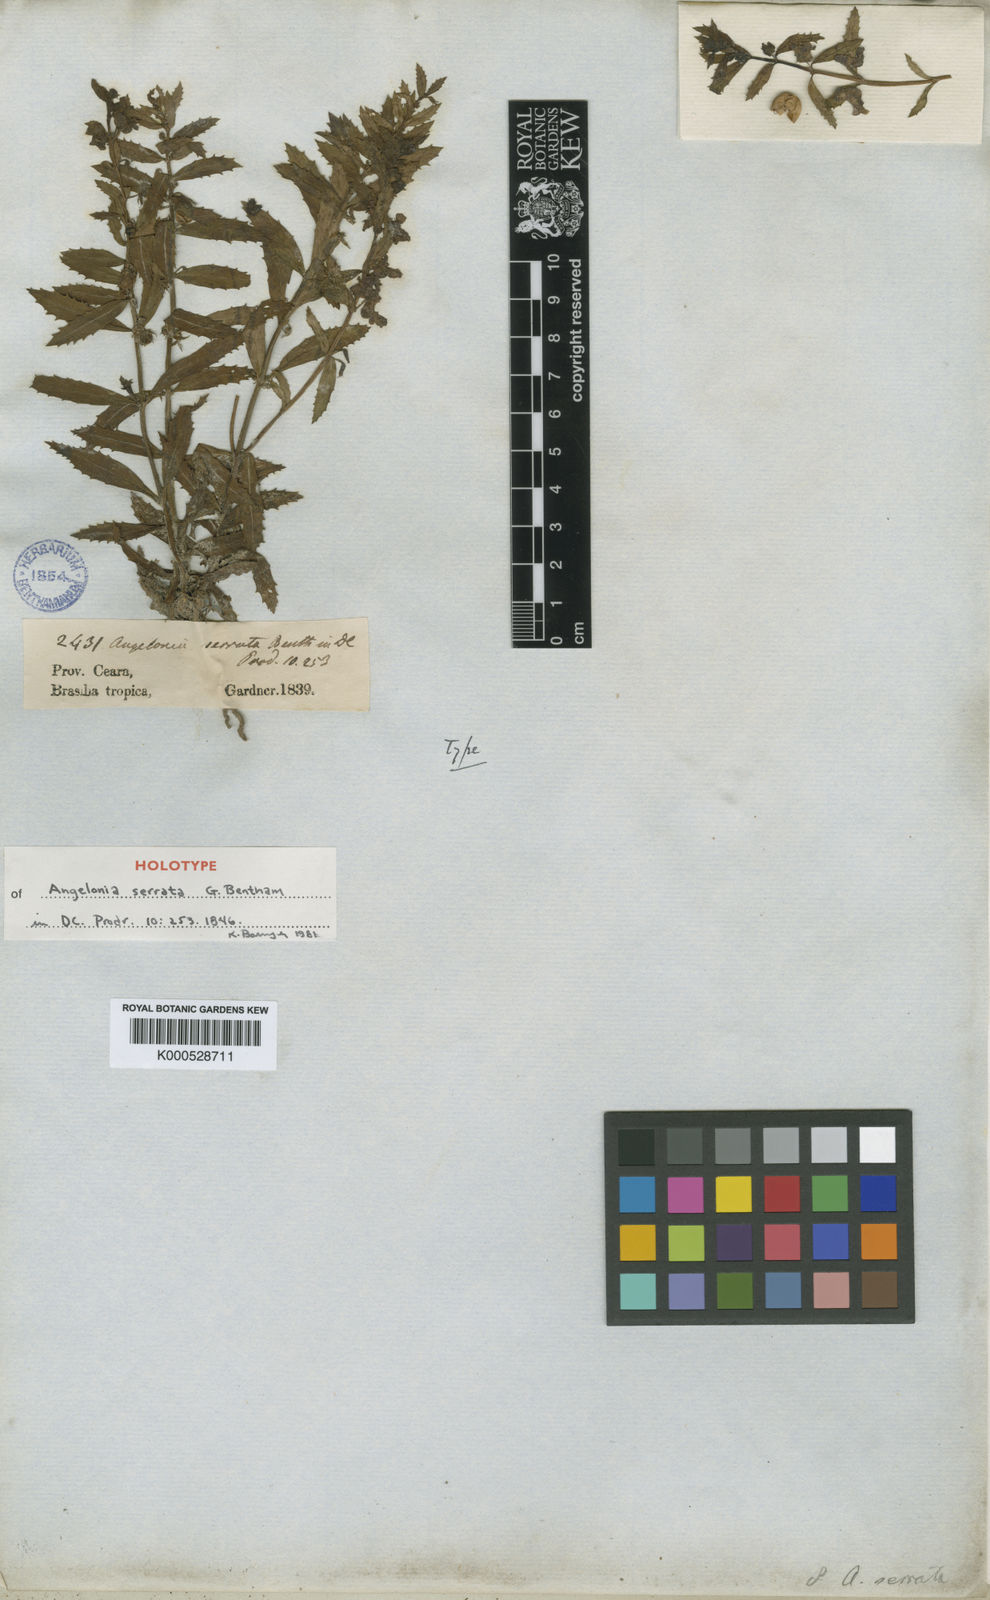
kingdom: Plantae
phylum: Tracheophyta
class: Magnoliopsida
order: Lamiales
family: Plantaginaceae
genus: Angelonia
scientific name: Angelonia arguta
